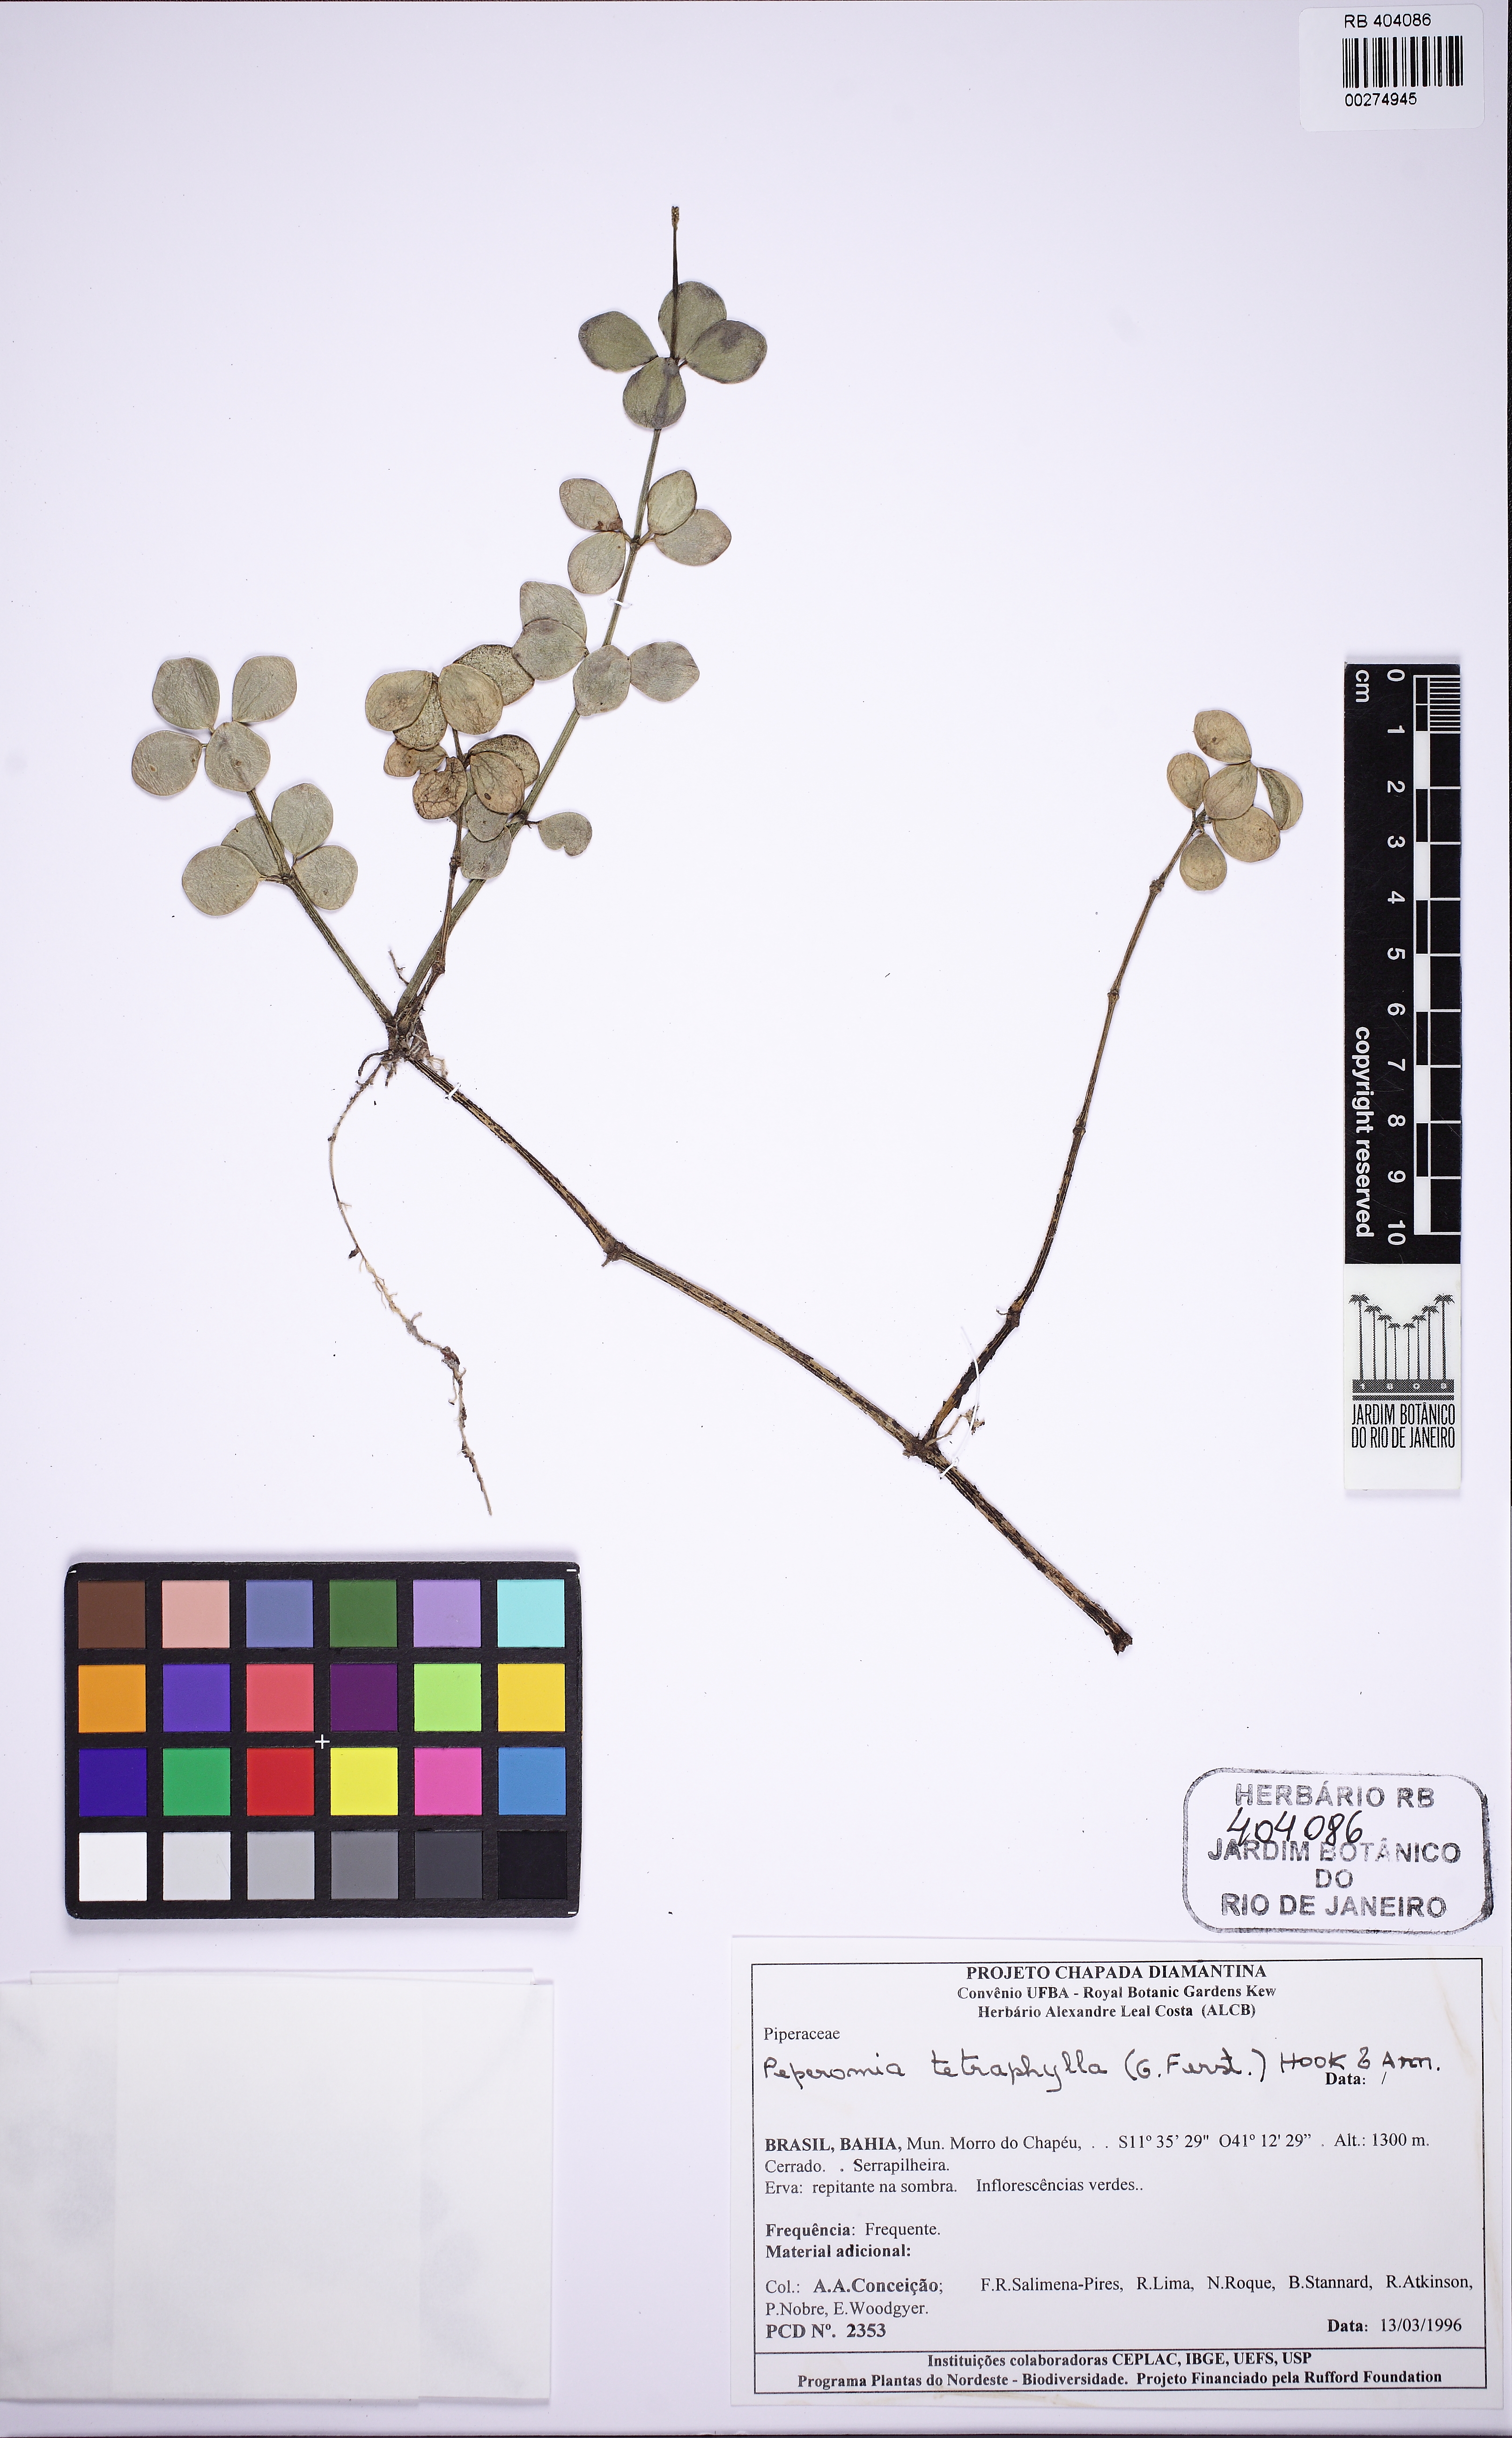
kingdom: Plantae
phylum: Tracheophyta
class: Magnoliopsida
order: Piperales
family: Piperaceae
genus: Peperomia
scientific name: Peperomia tetraphylla
